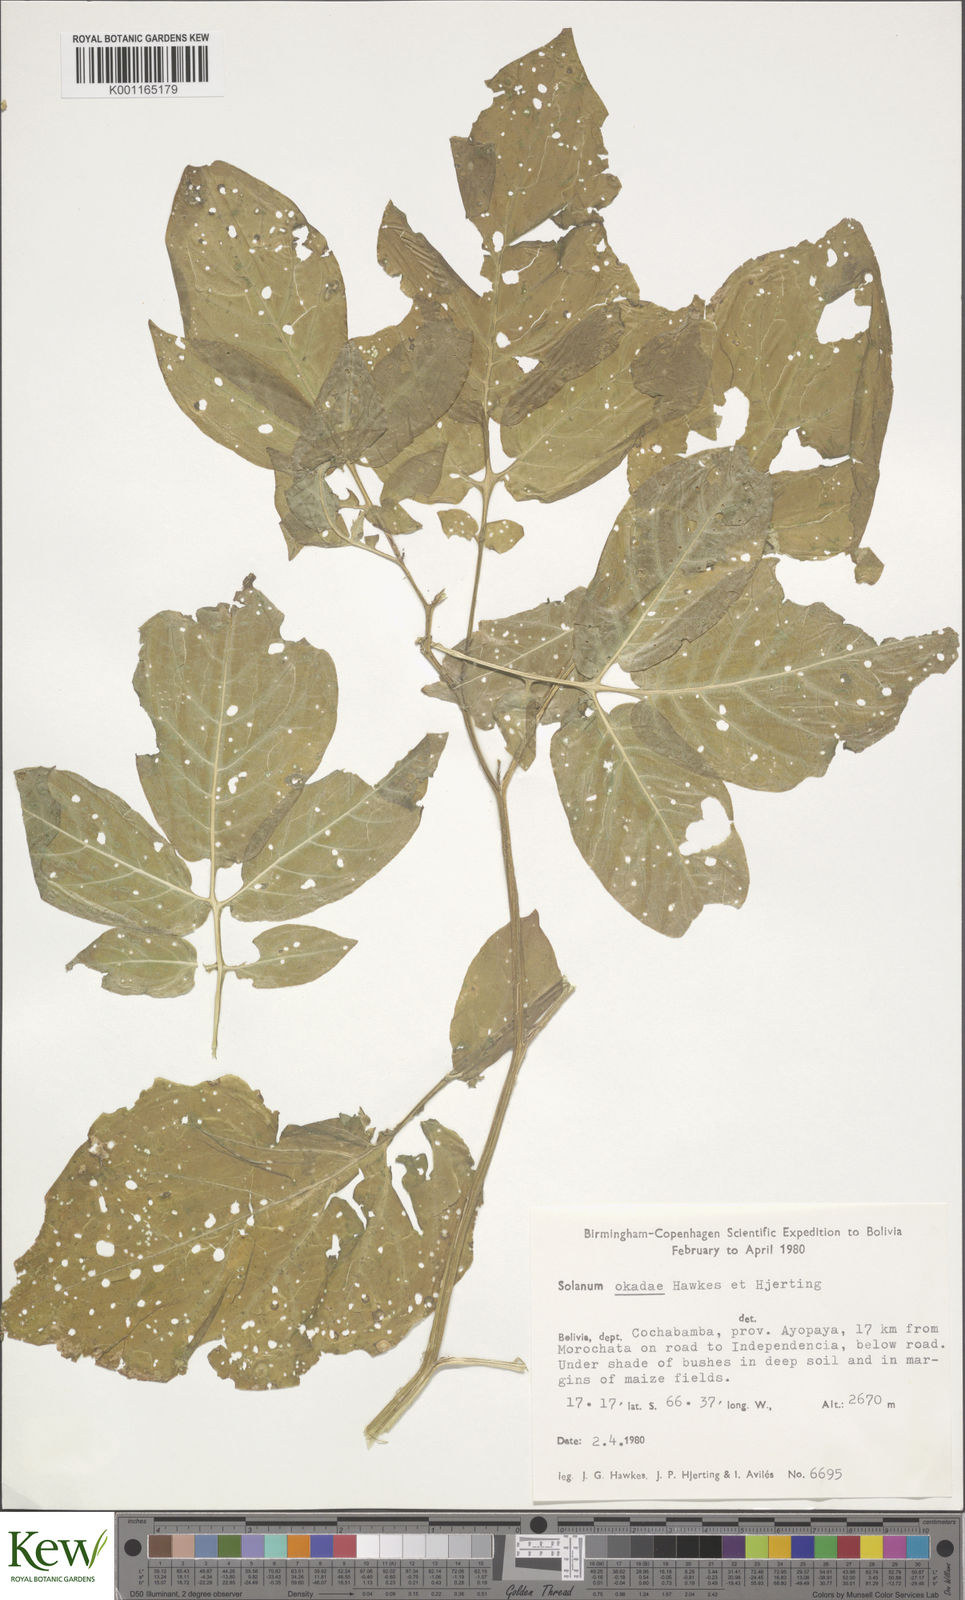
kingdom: Plantae
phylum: Tracheophyta
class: Magnoliopsida
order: Solanales
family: Solanaceae
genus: Solanum
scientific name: Solanum okadae
